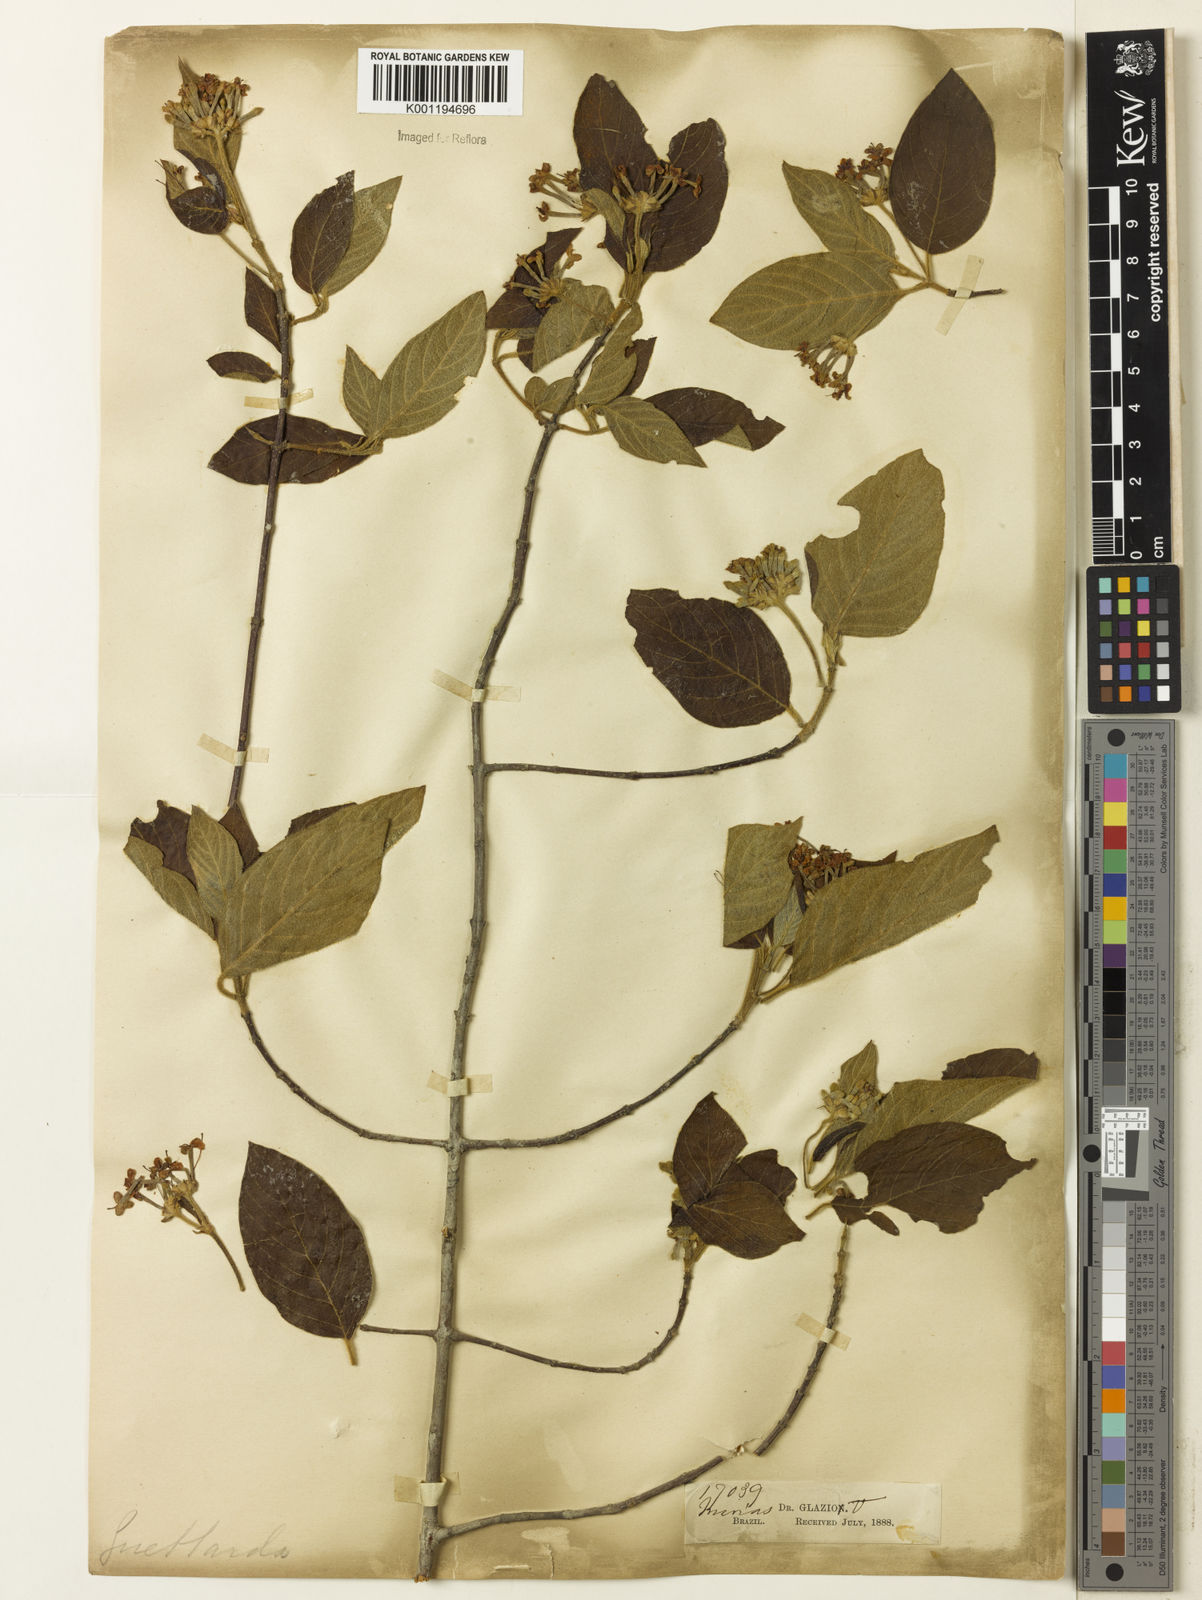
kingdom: Plantae
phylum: Tracheophyta
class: Magnoliopsida
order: Gentianales
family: Rubiaceae
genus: Guettarda
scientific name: Guettarda uruguensis
